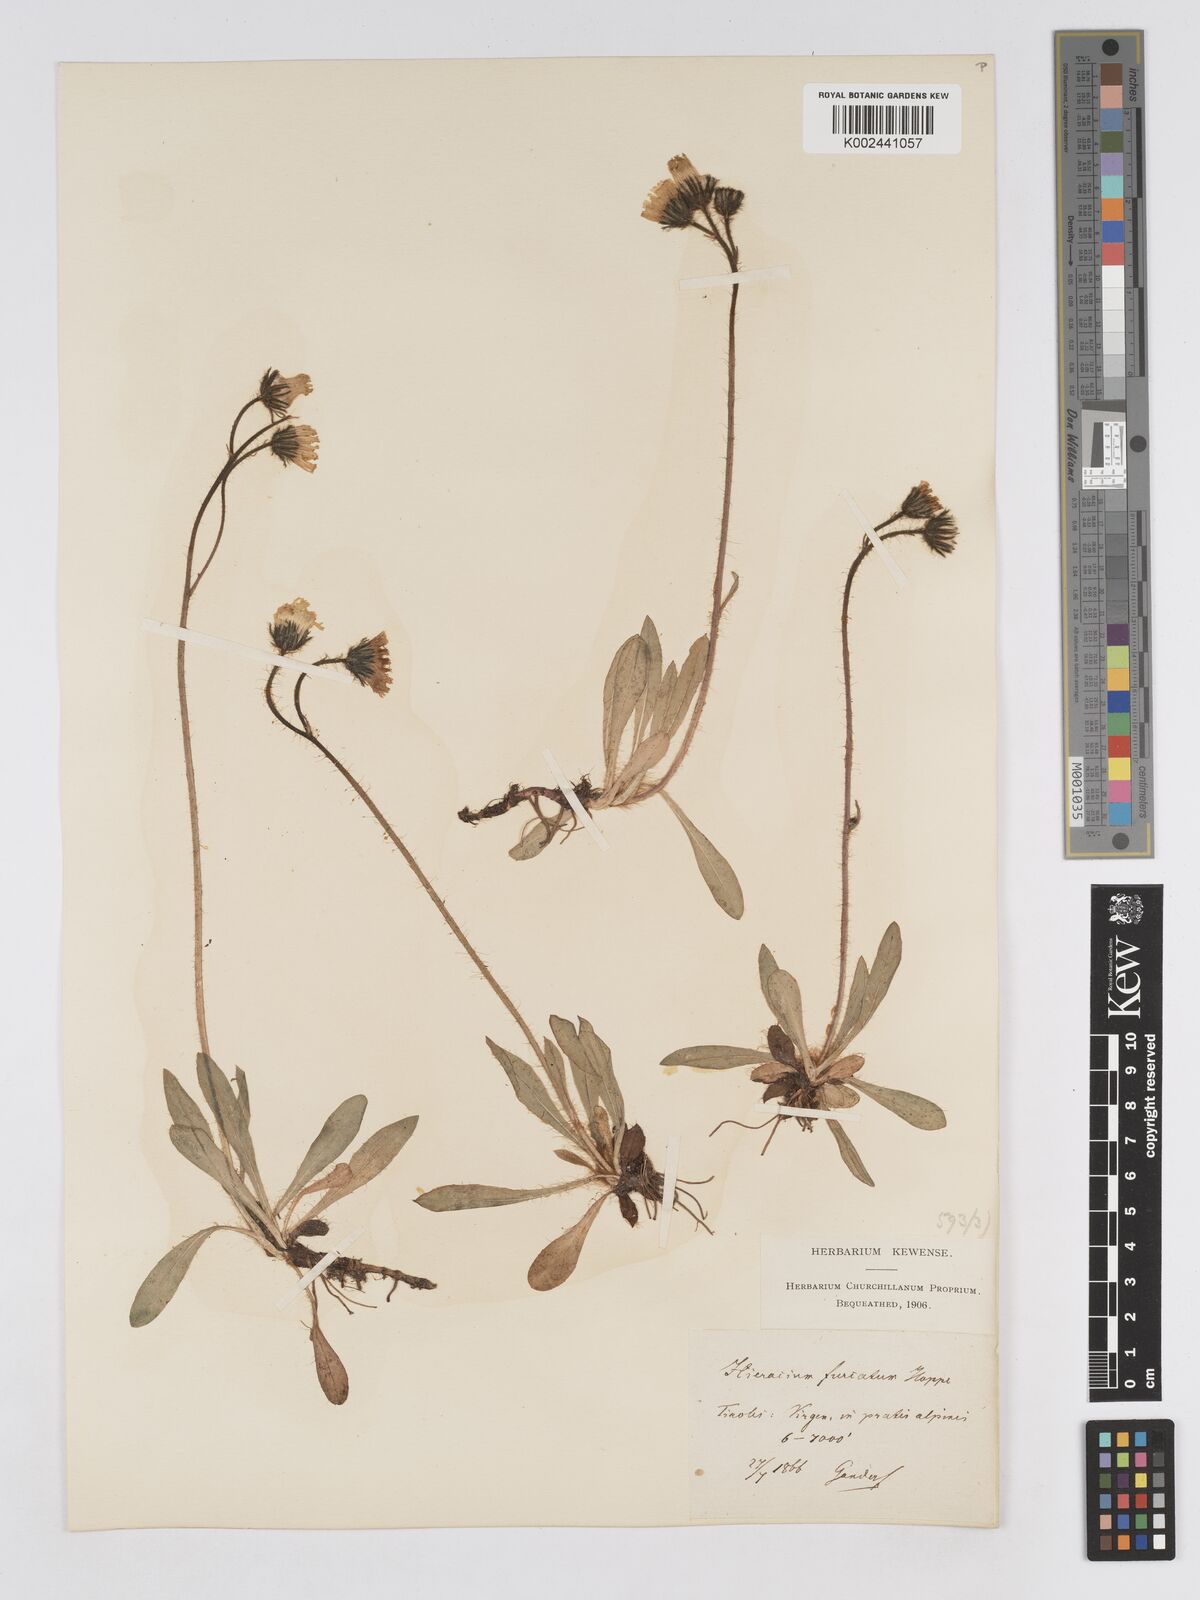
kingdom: Plantae
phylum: Tracheophyta
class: Magnoliopsida
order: Asterales
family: Asteraceae
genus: Pilosella
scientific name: Pilosella sphaerocephala
